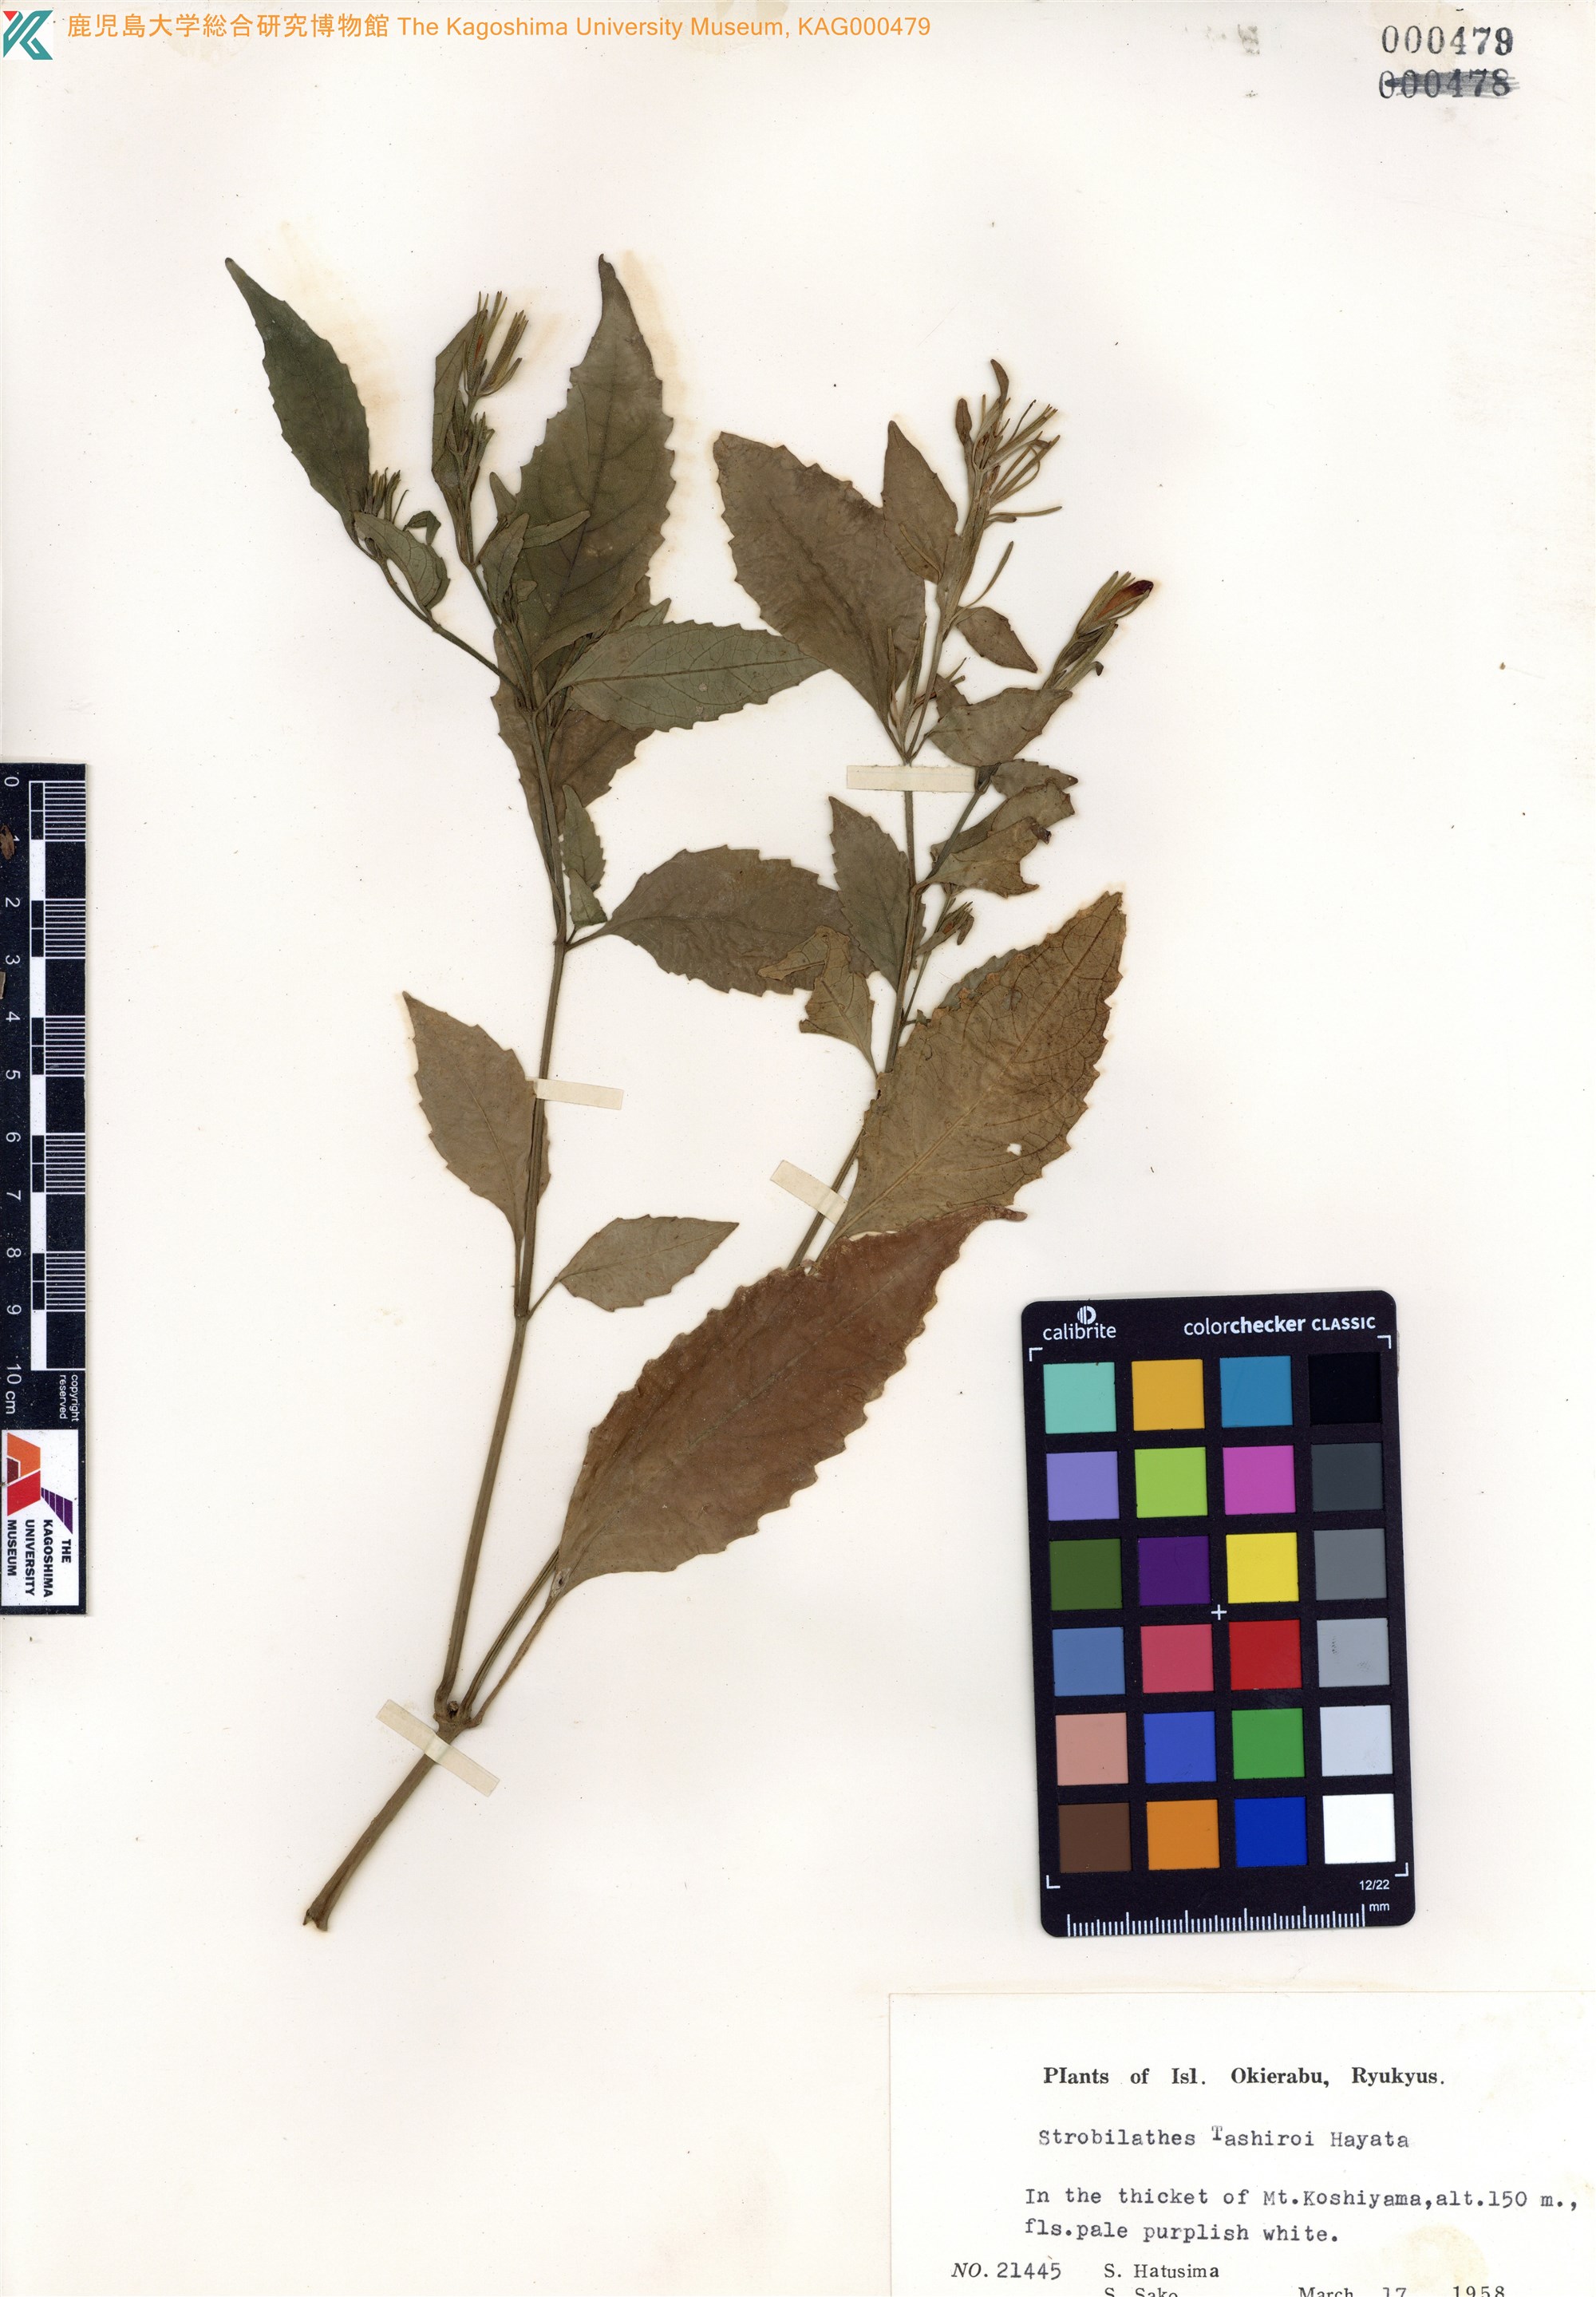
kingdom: Plantae
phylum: Tracheophyta
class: Magnoliopsida
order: Lamiales
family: Acanthaceae
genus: Strobilanthes
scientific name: Strobilanthes flexicaulis
